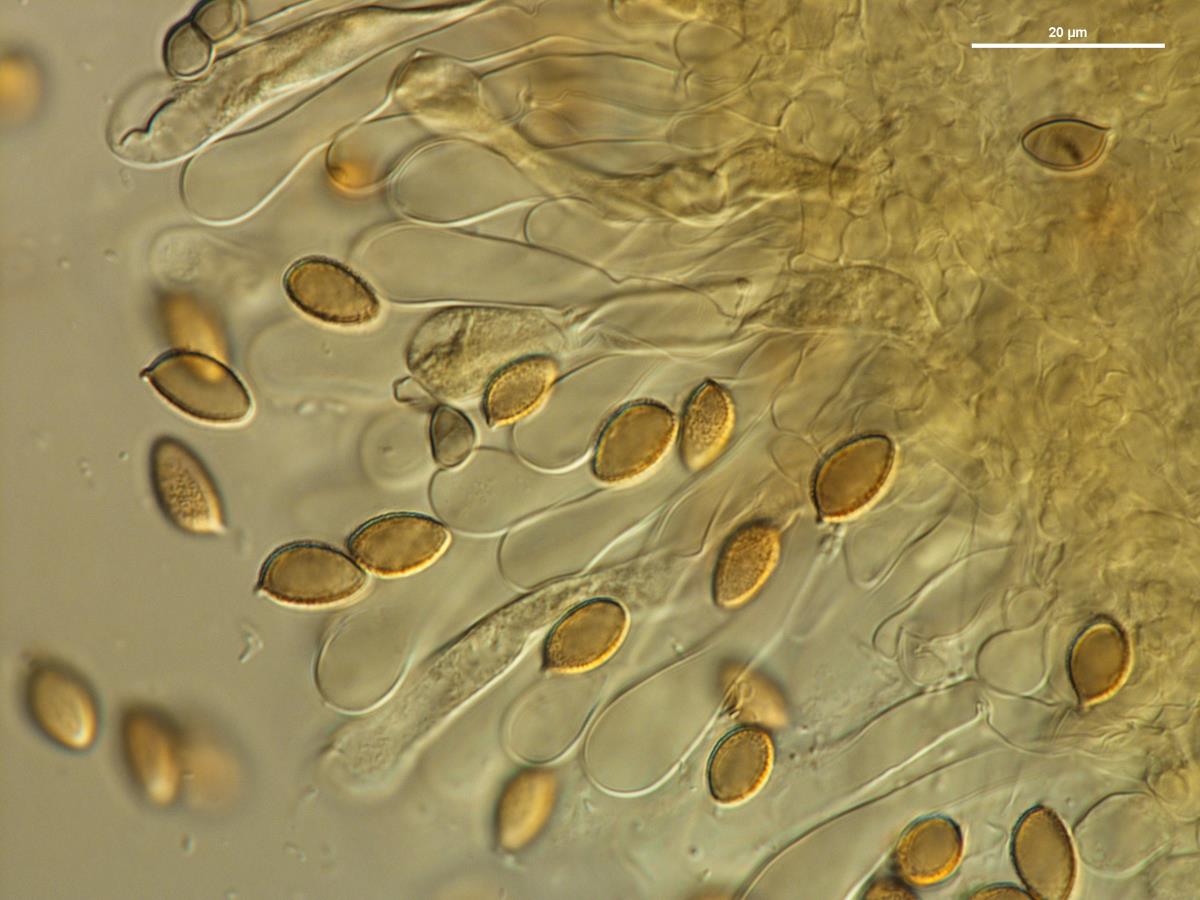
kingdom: Fungi
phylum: Basidiomycota
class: Agaricomycetes
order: Agaricales
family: Hymenogastraceae
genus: Hebeloma
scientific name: Hebeloma leucosarx
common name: Birch poisonpie
